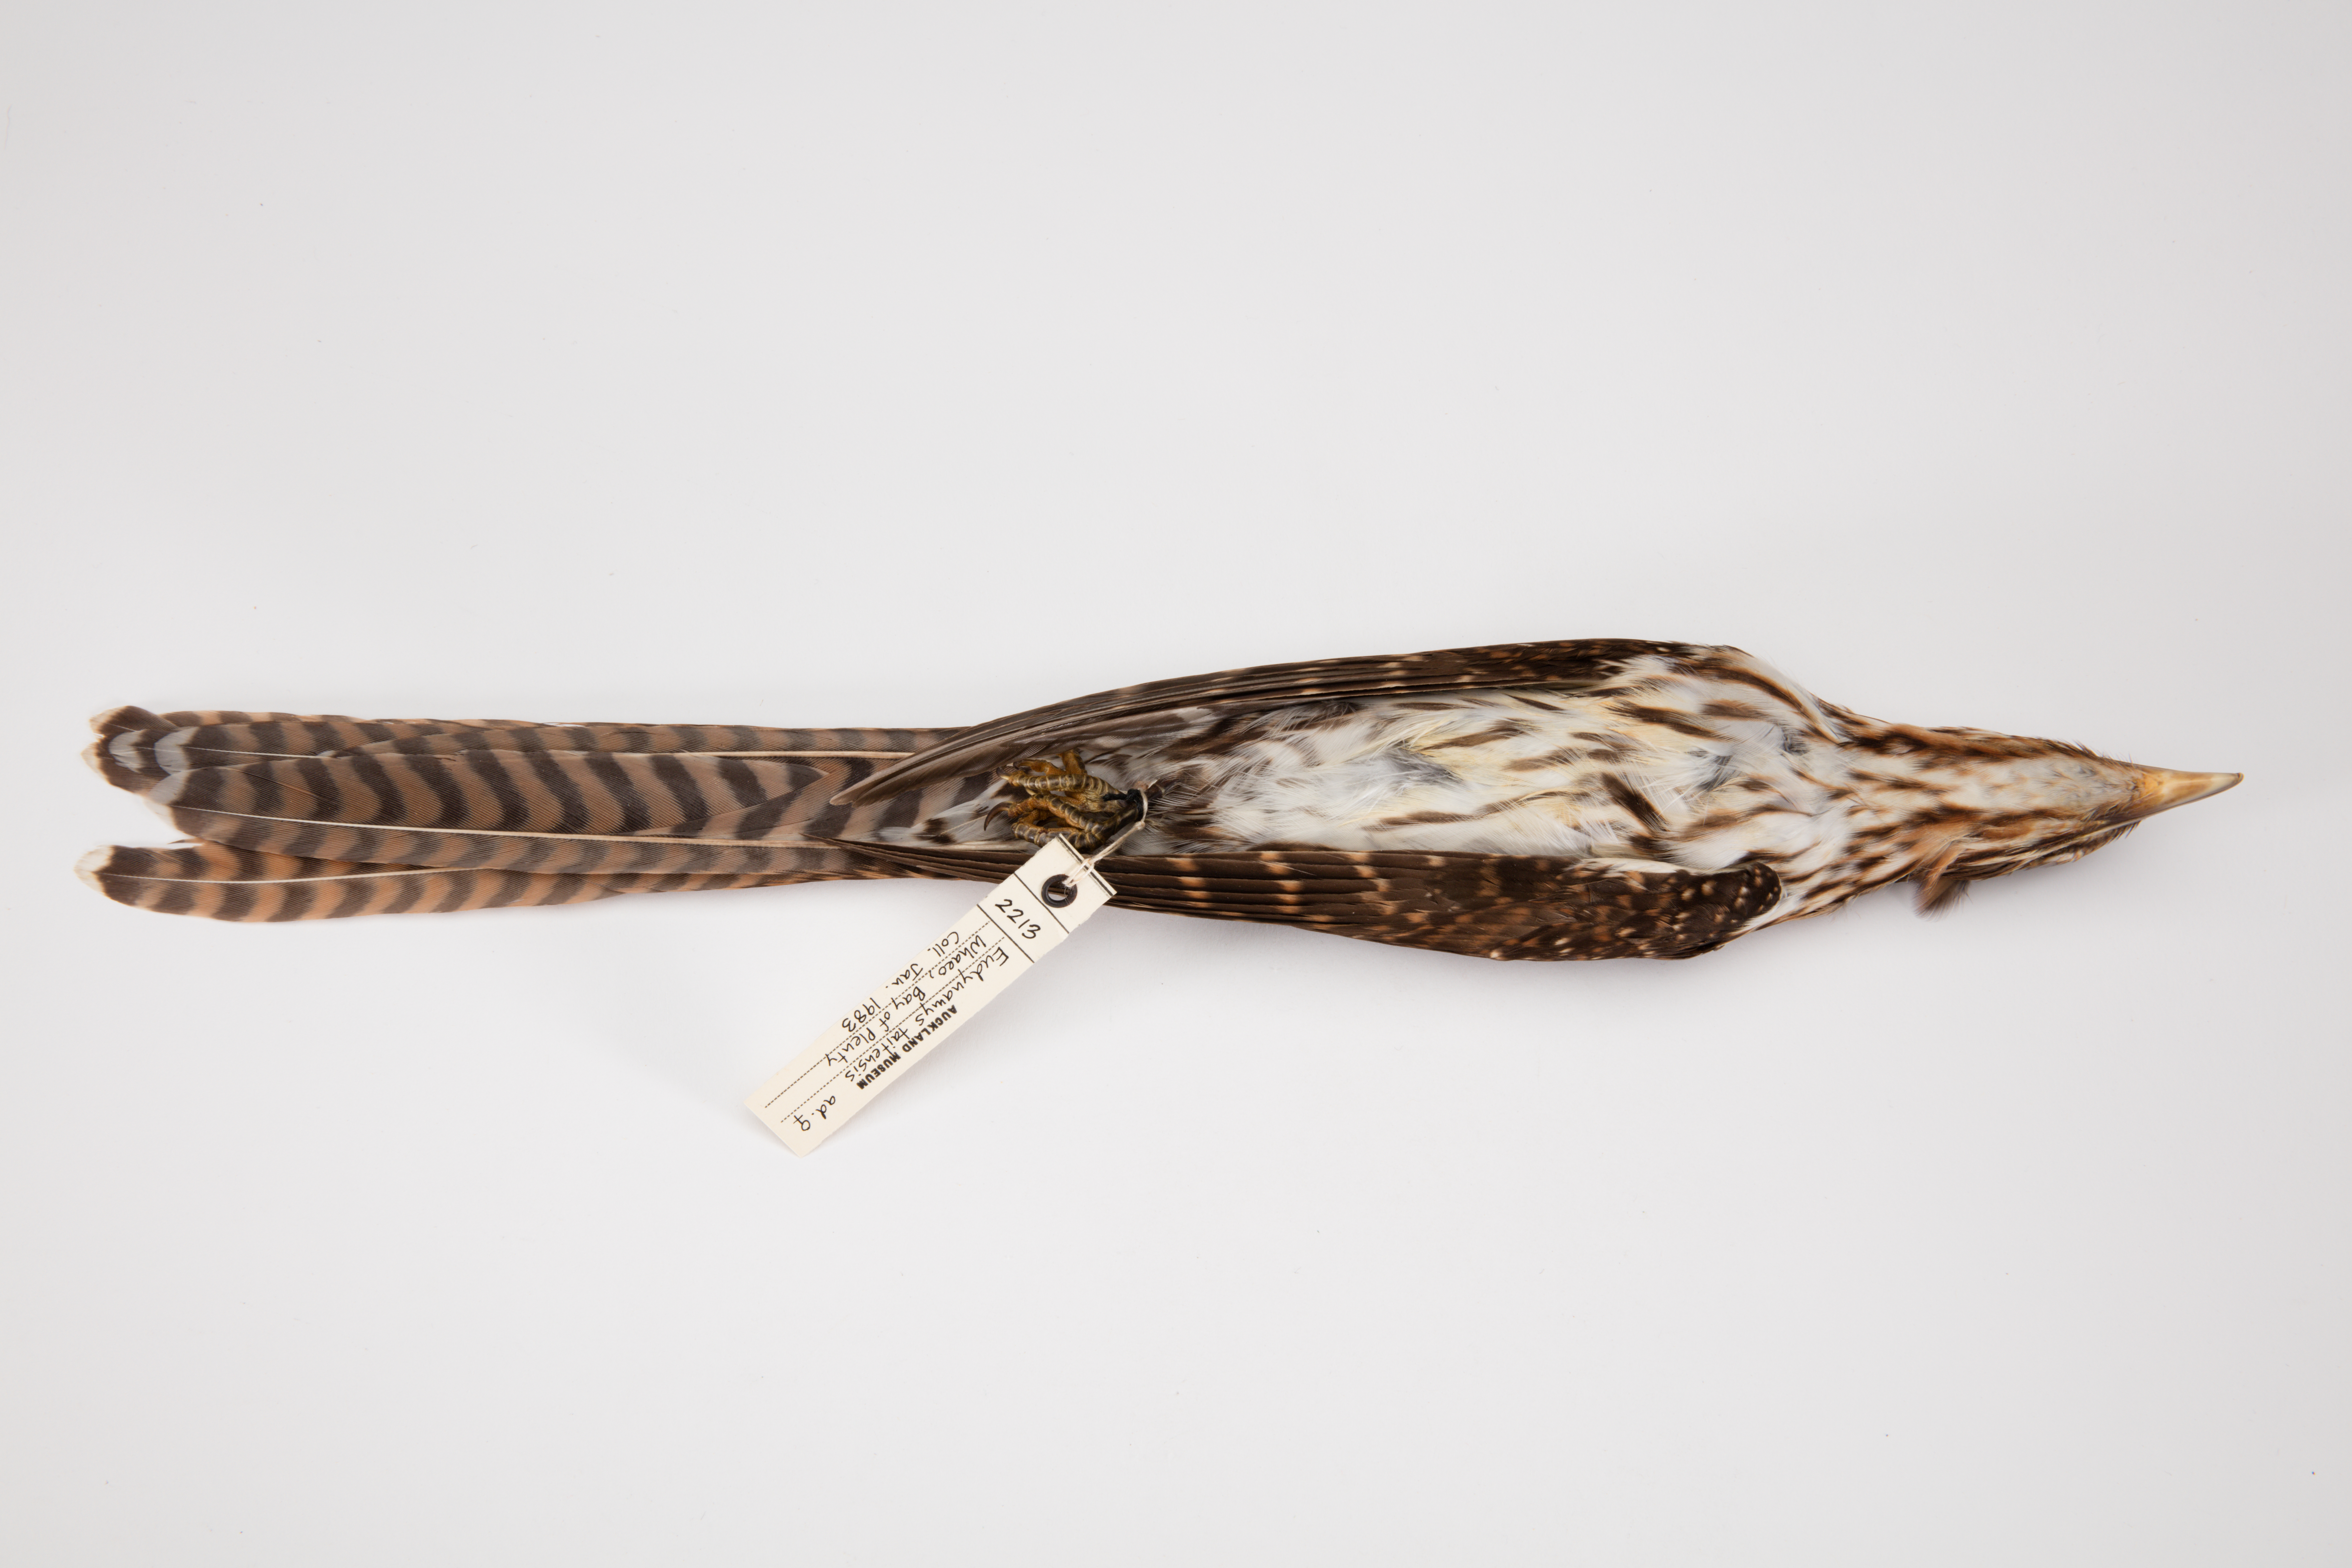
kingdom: Animalia
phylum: Chordata
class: Aves
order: Cuculiformes
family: Cuculidae
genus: Urodynamis
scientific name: Urodynamis taitensis
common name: Long-tailed koel
